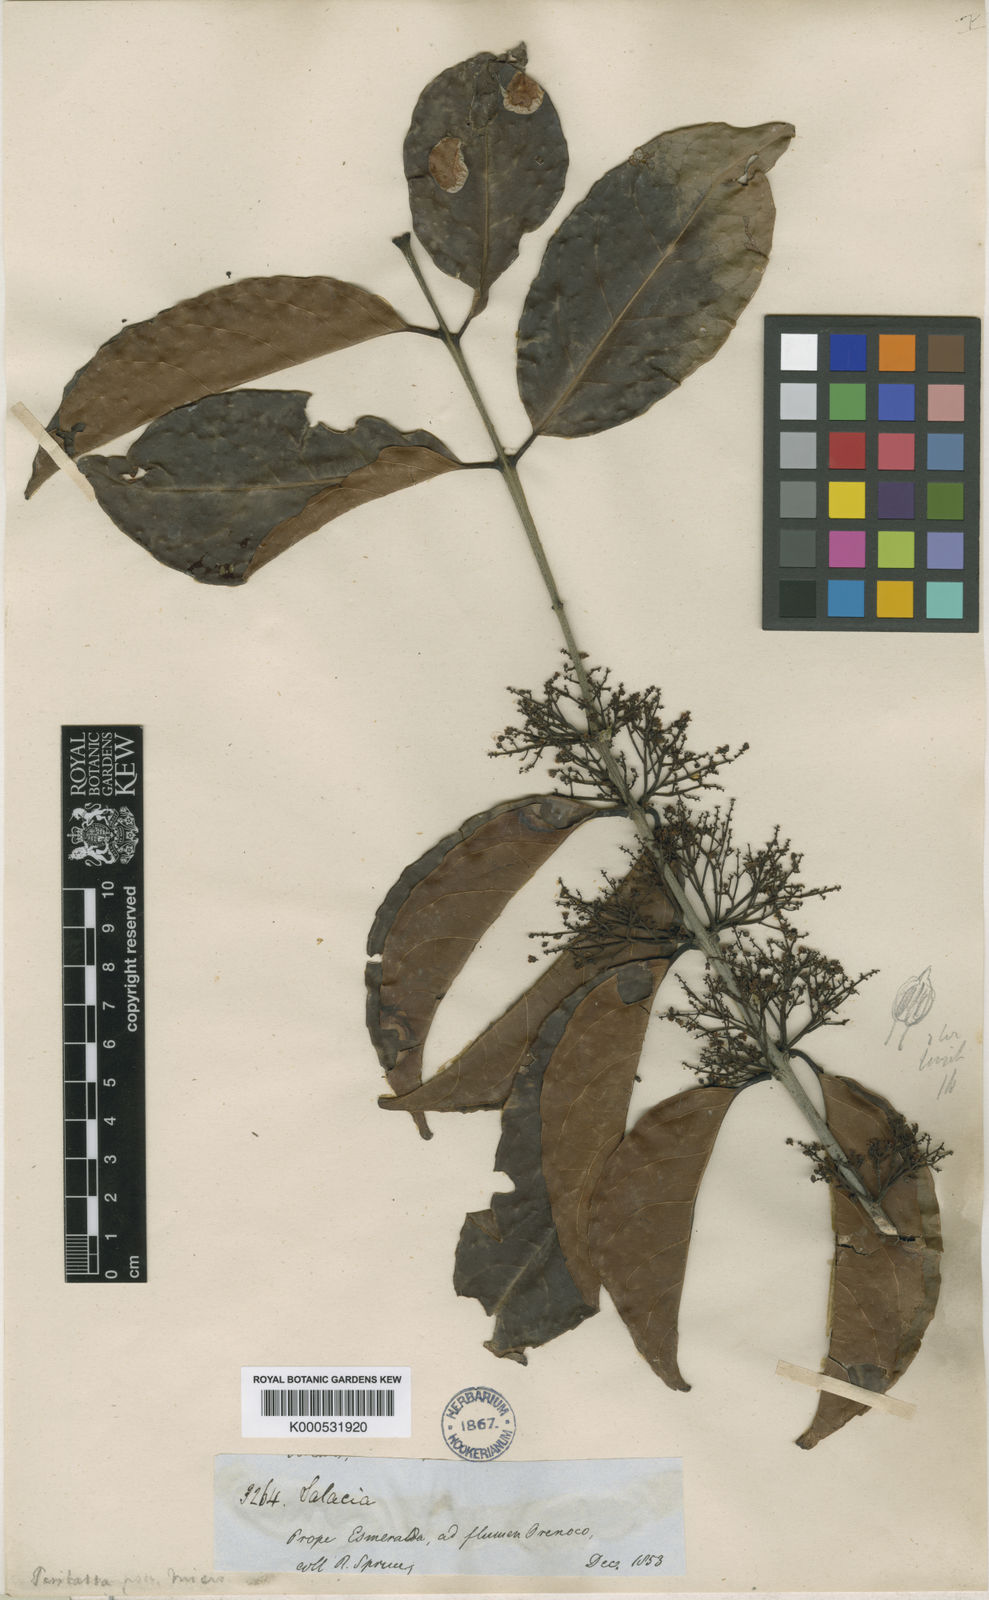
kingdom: Plantae
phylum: Tracheophyta
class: Magnoliopsida
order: Celastrales
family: Celastraceae
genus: Peritassa
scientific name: Peritassa laevigata
